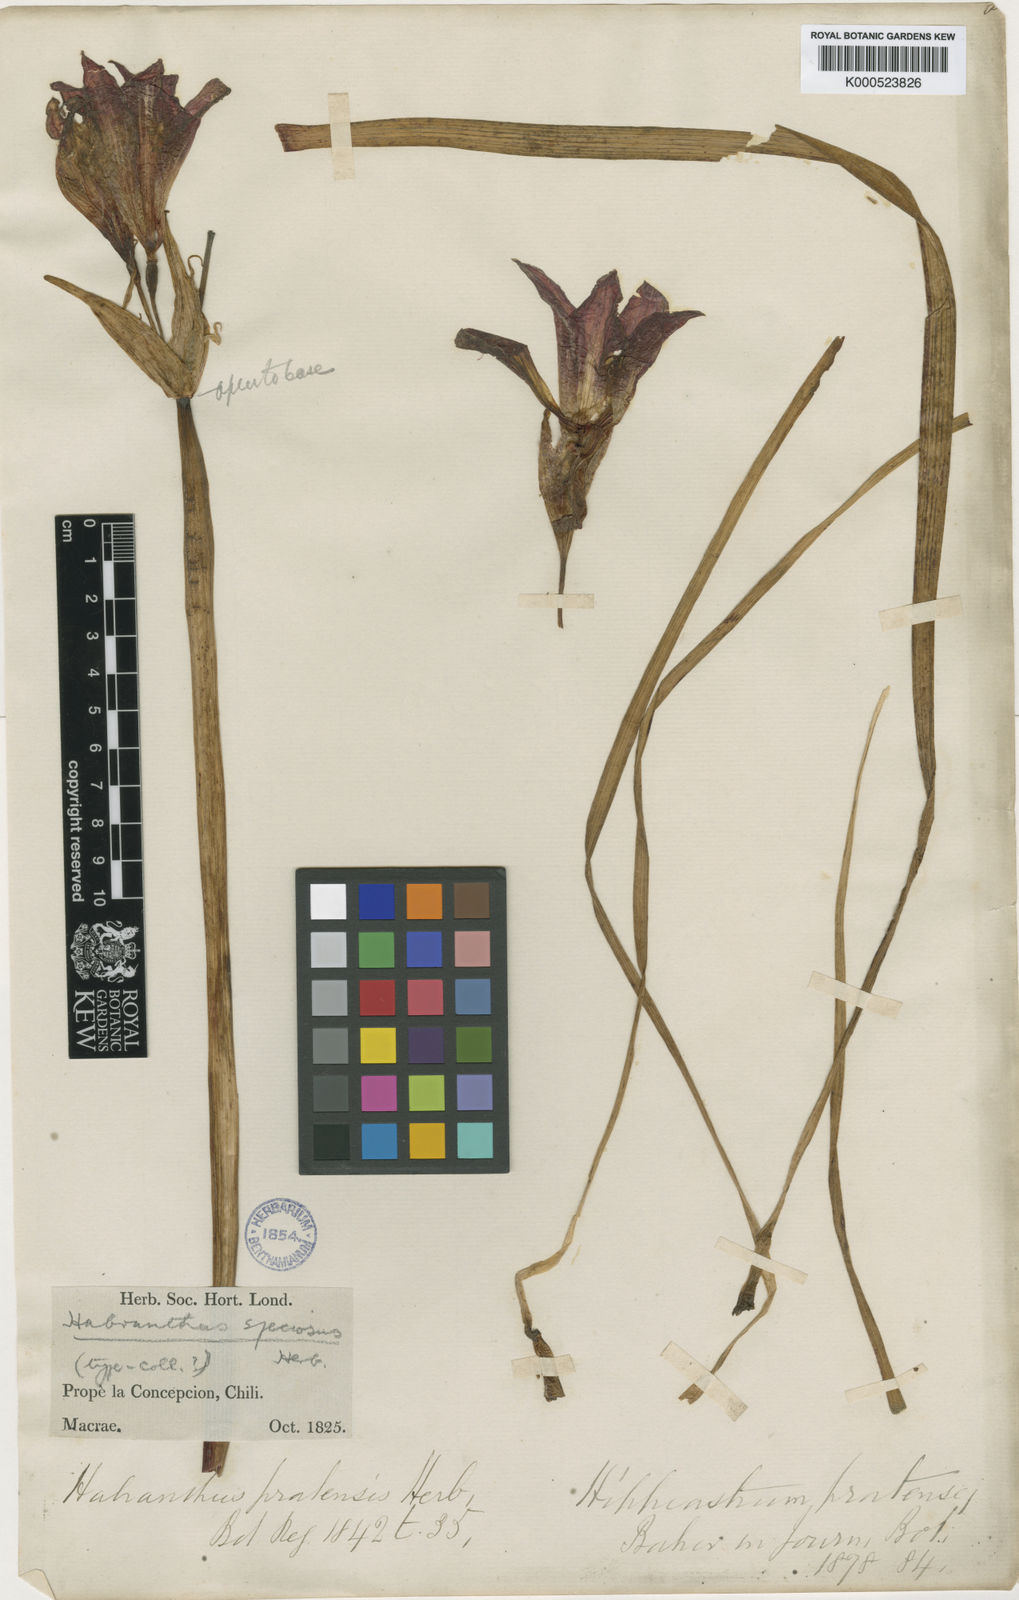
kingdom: Plantae
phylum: Tracheophyta
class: Liliopsida
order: Asparagales
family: Amaryllidaceae
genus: Phycella
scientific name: Phycella chilensis
